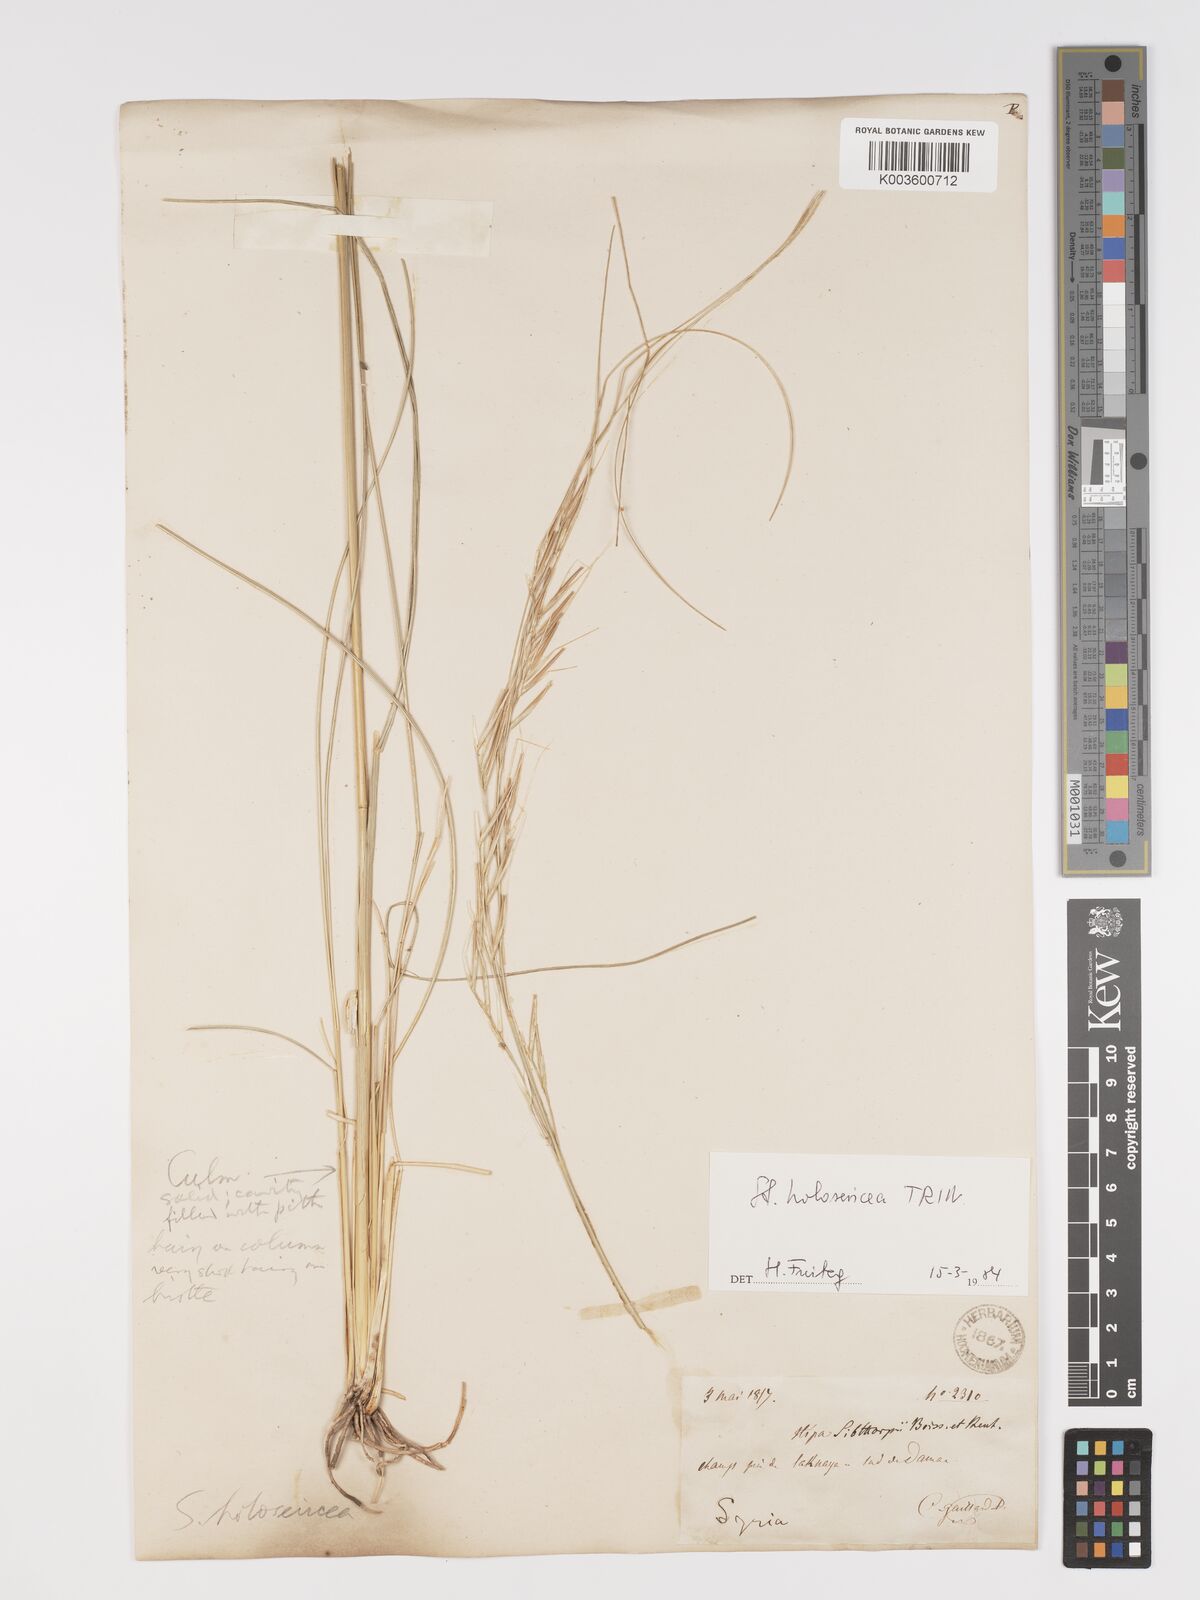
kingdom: Plantae
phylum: Tracheophyta
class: Liliopsida
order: Poales
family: Poaceae
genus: Stipa
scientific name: Stipa holosericea
